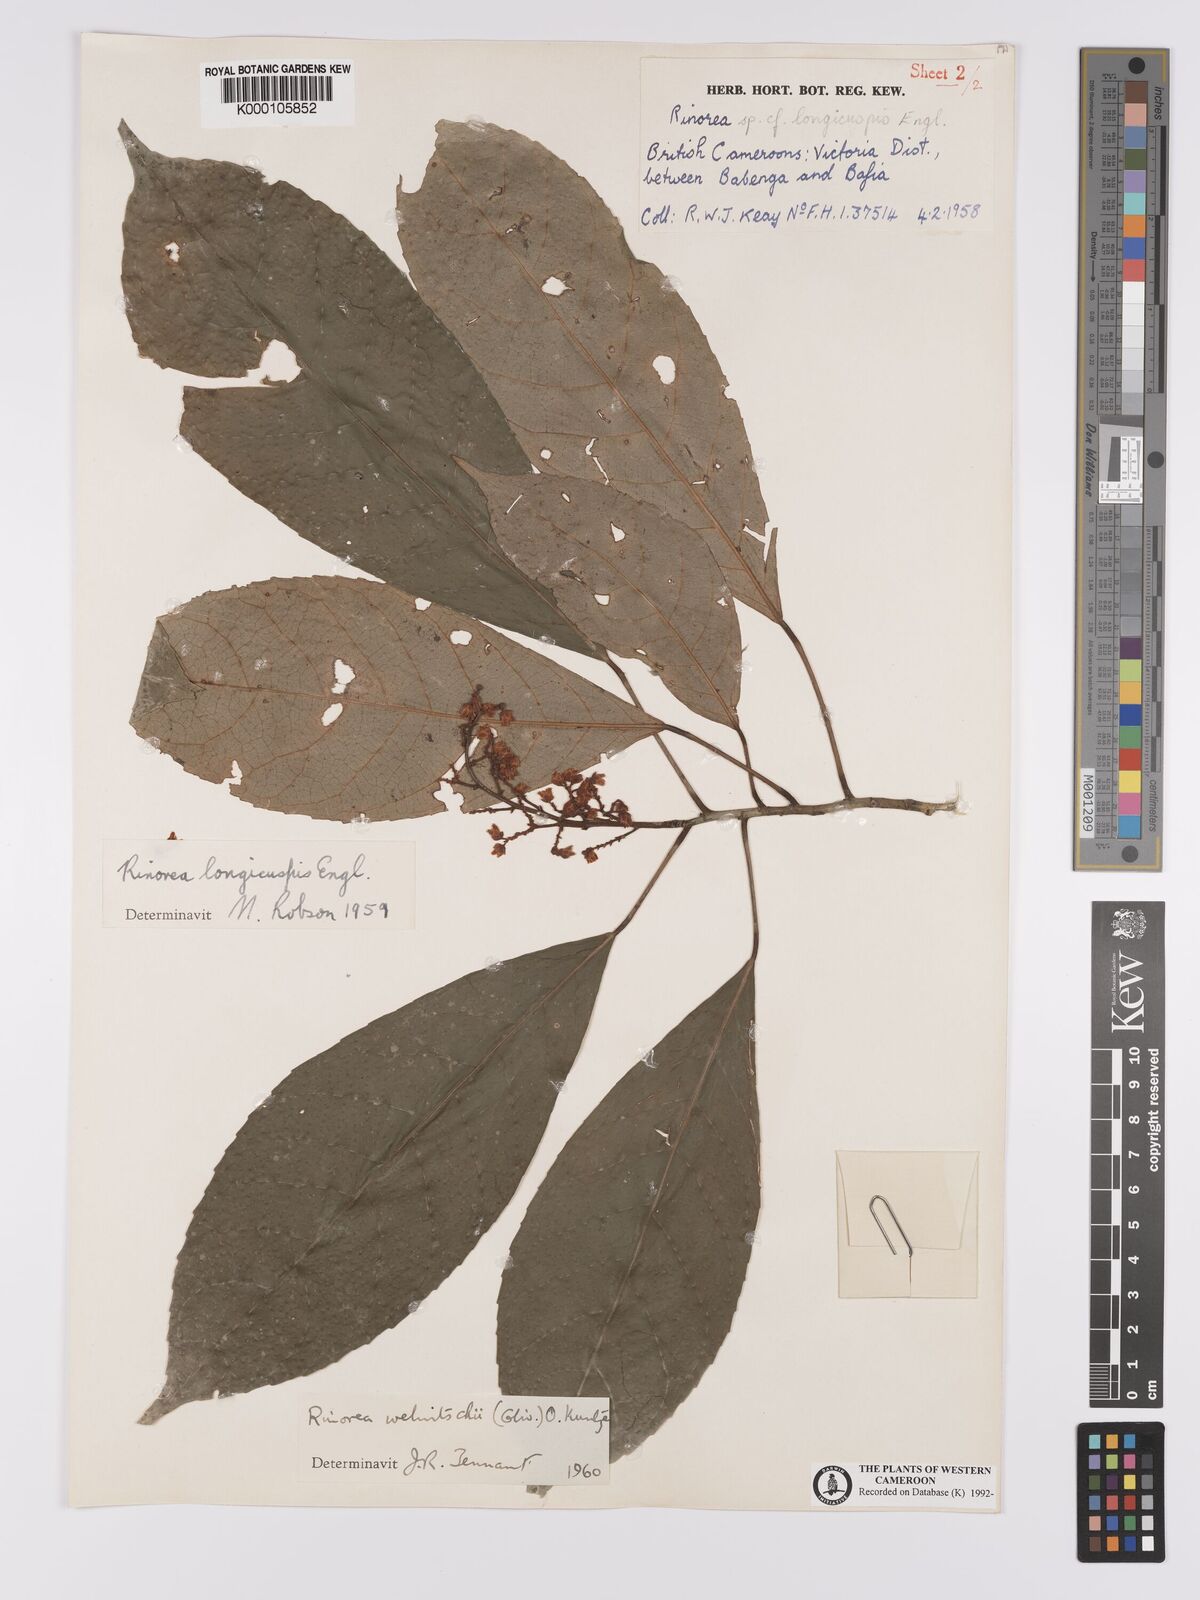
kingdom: Plantae
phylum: Tracheophyta
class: Magnoliopsida
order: Malpighiales
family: Violaceae
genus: Rinorea
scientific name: Rinorea welwitschii
